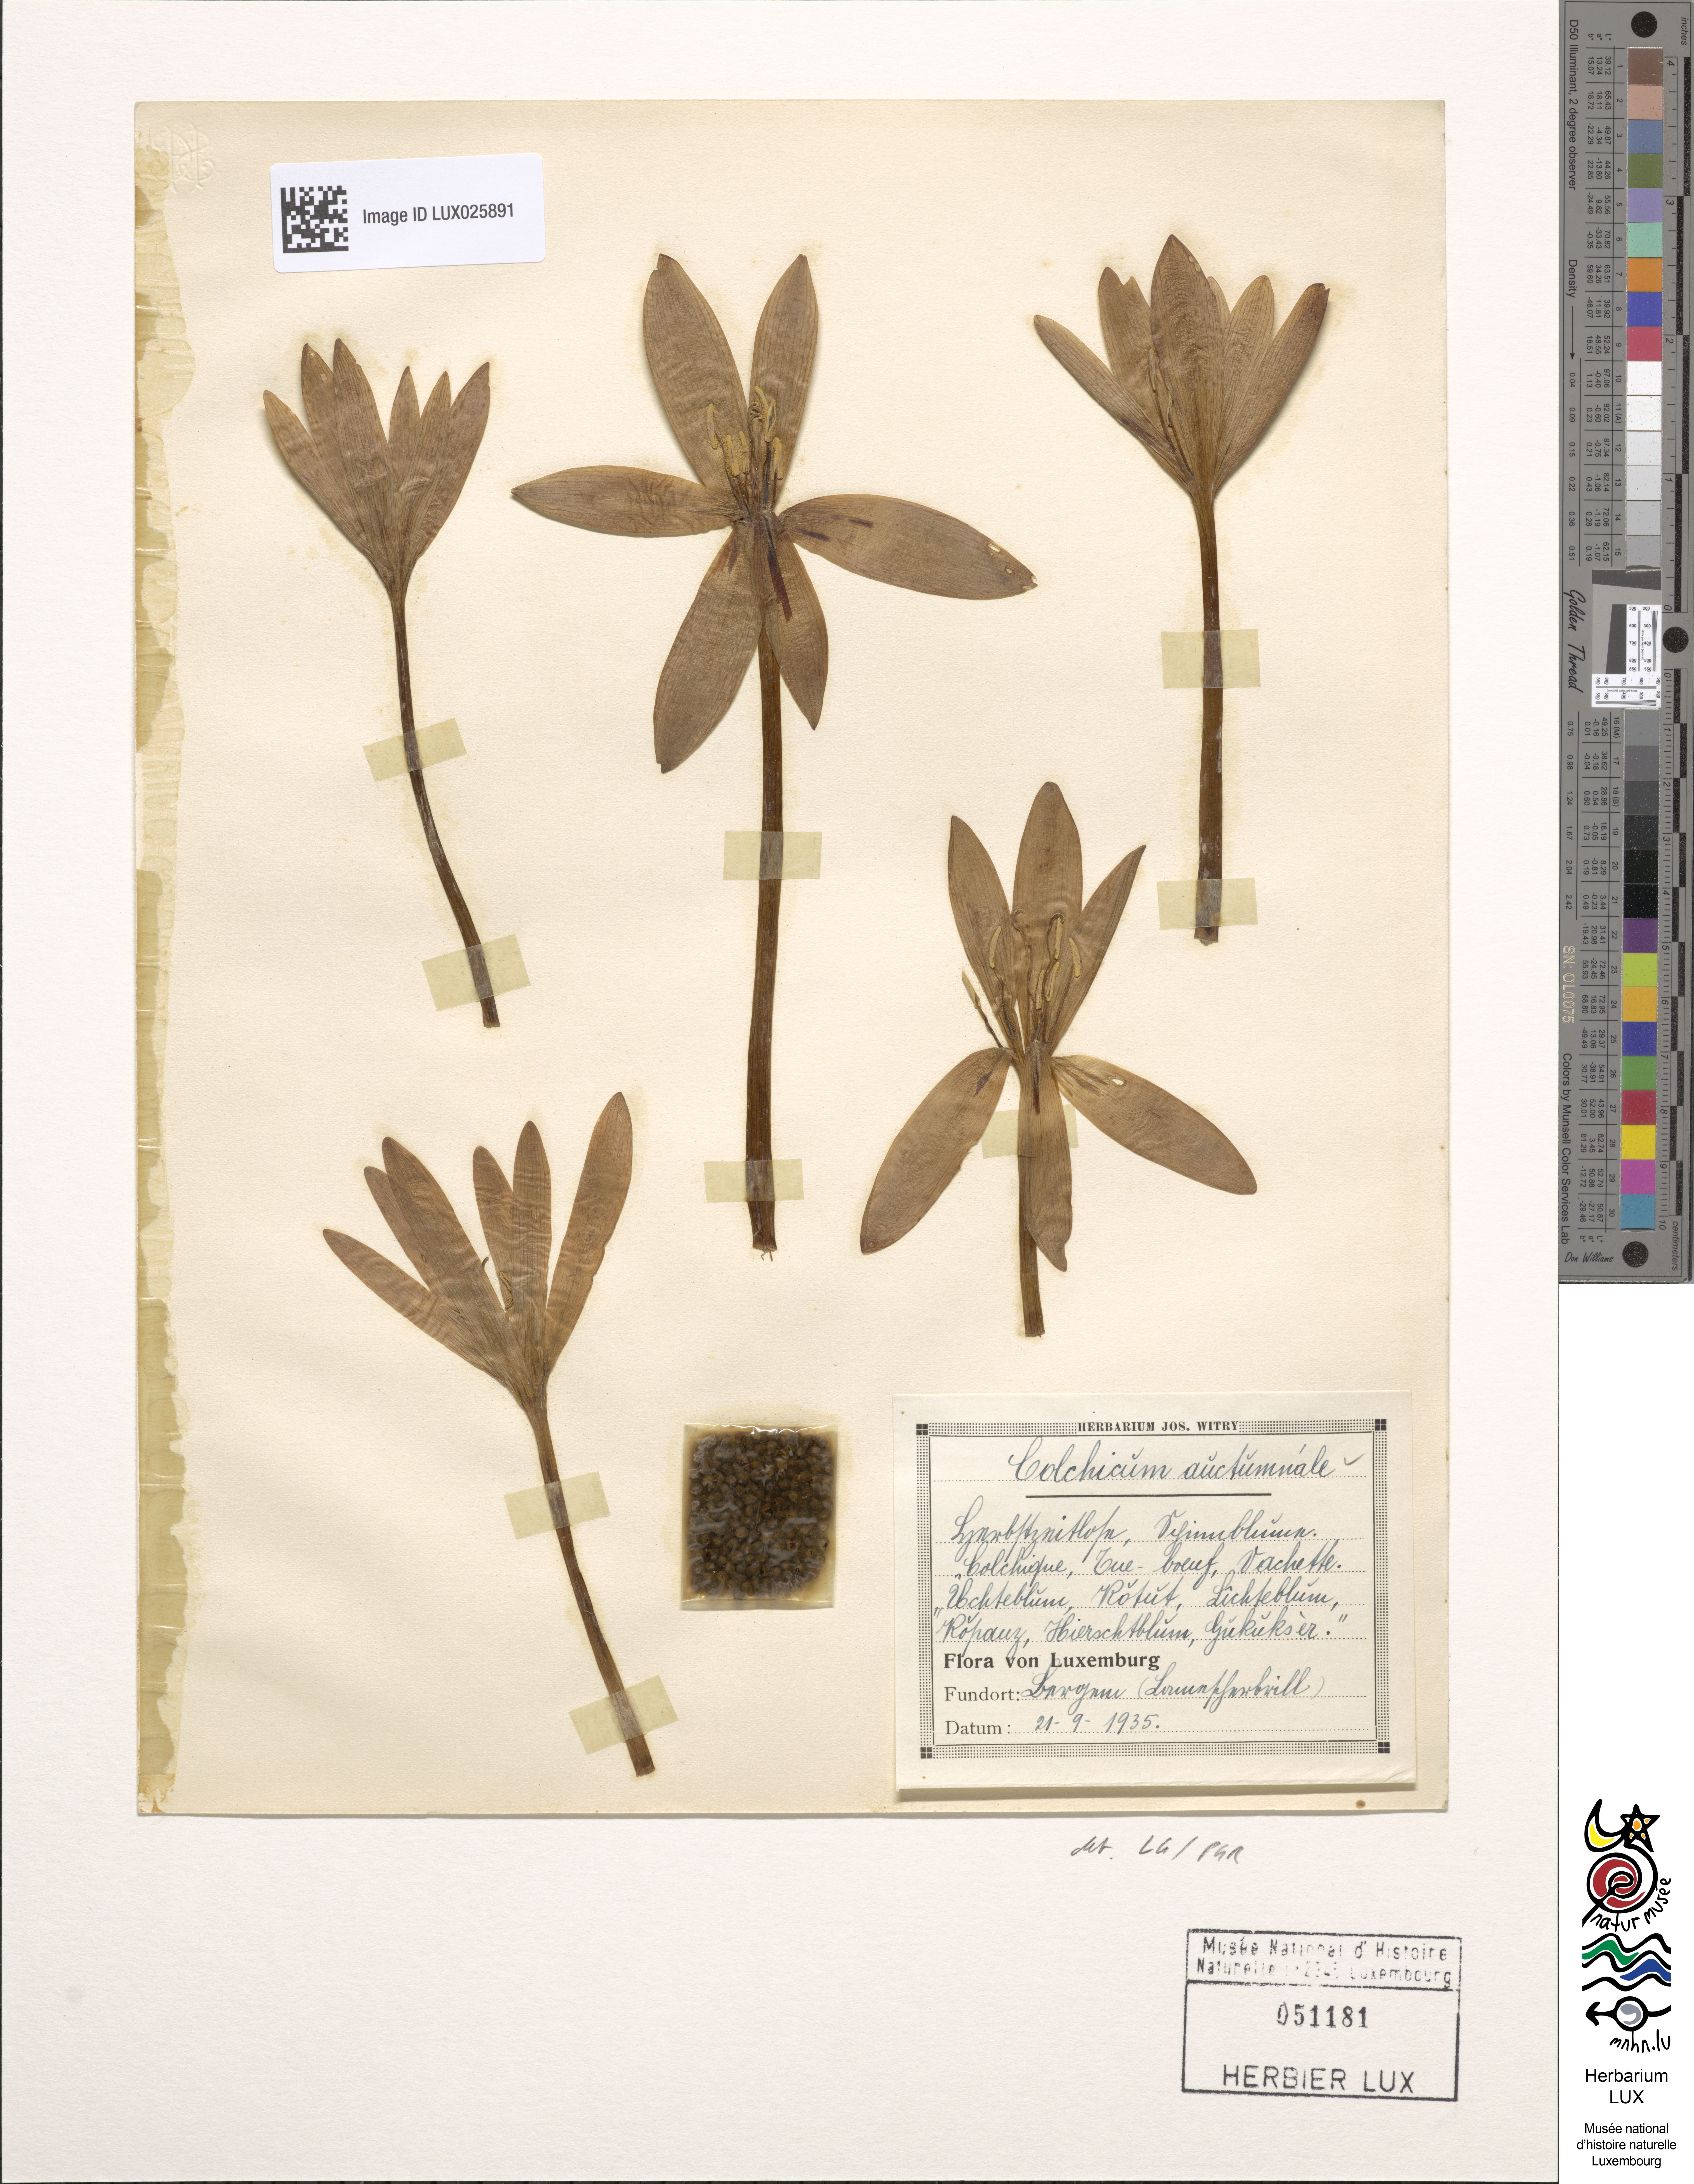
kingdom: Plantae
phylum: Tracheophyta
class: Liliopsida
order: Liliales
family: Colchicaceae
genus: Colchicum
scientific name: Colchicum autumnale
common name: Autumn crocus
